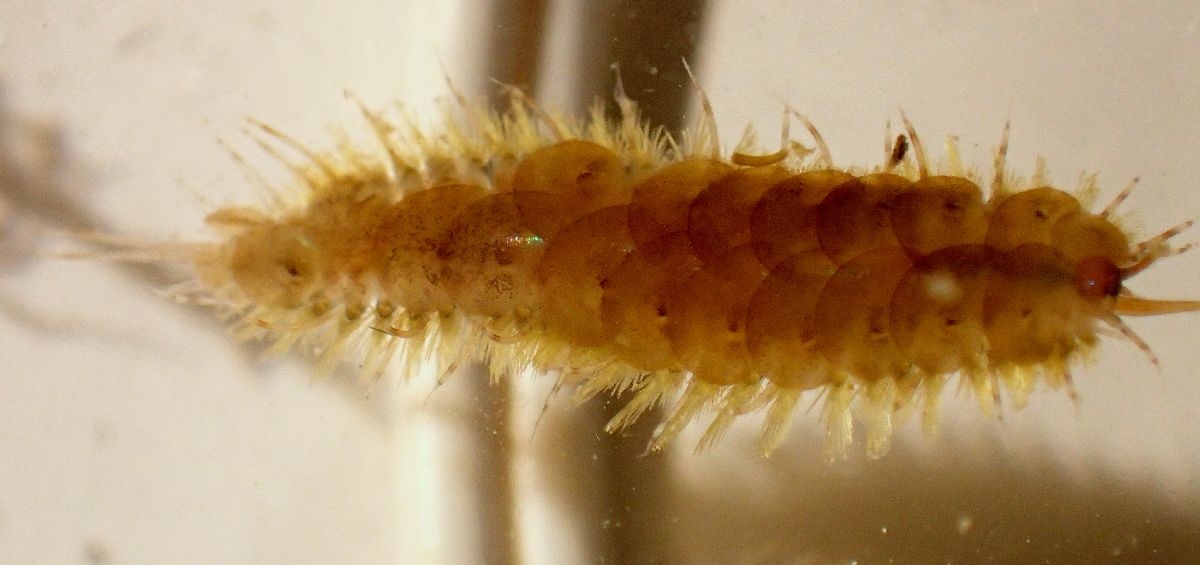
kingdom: Animalia
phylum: Annelida
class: Polychaeta
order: Phyllodocida
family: Polynoidae
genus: Harmothoe
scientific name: Harmothoe imbricata
